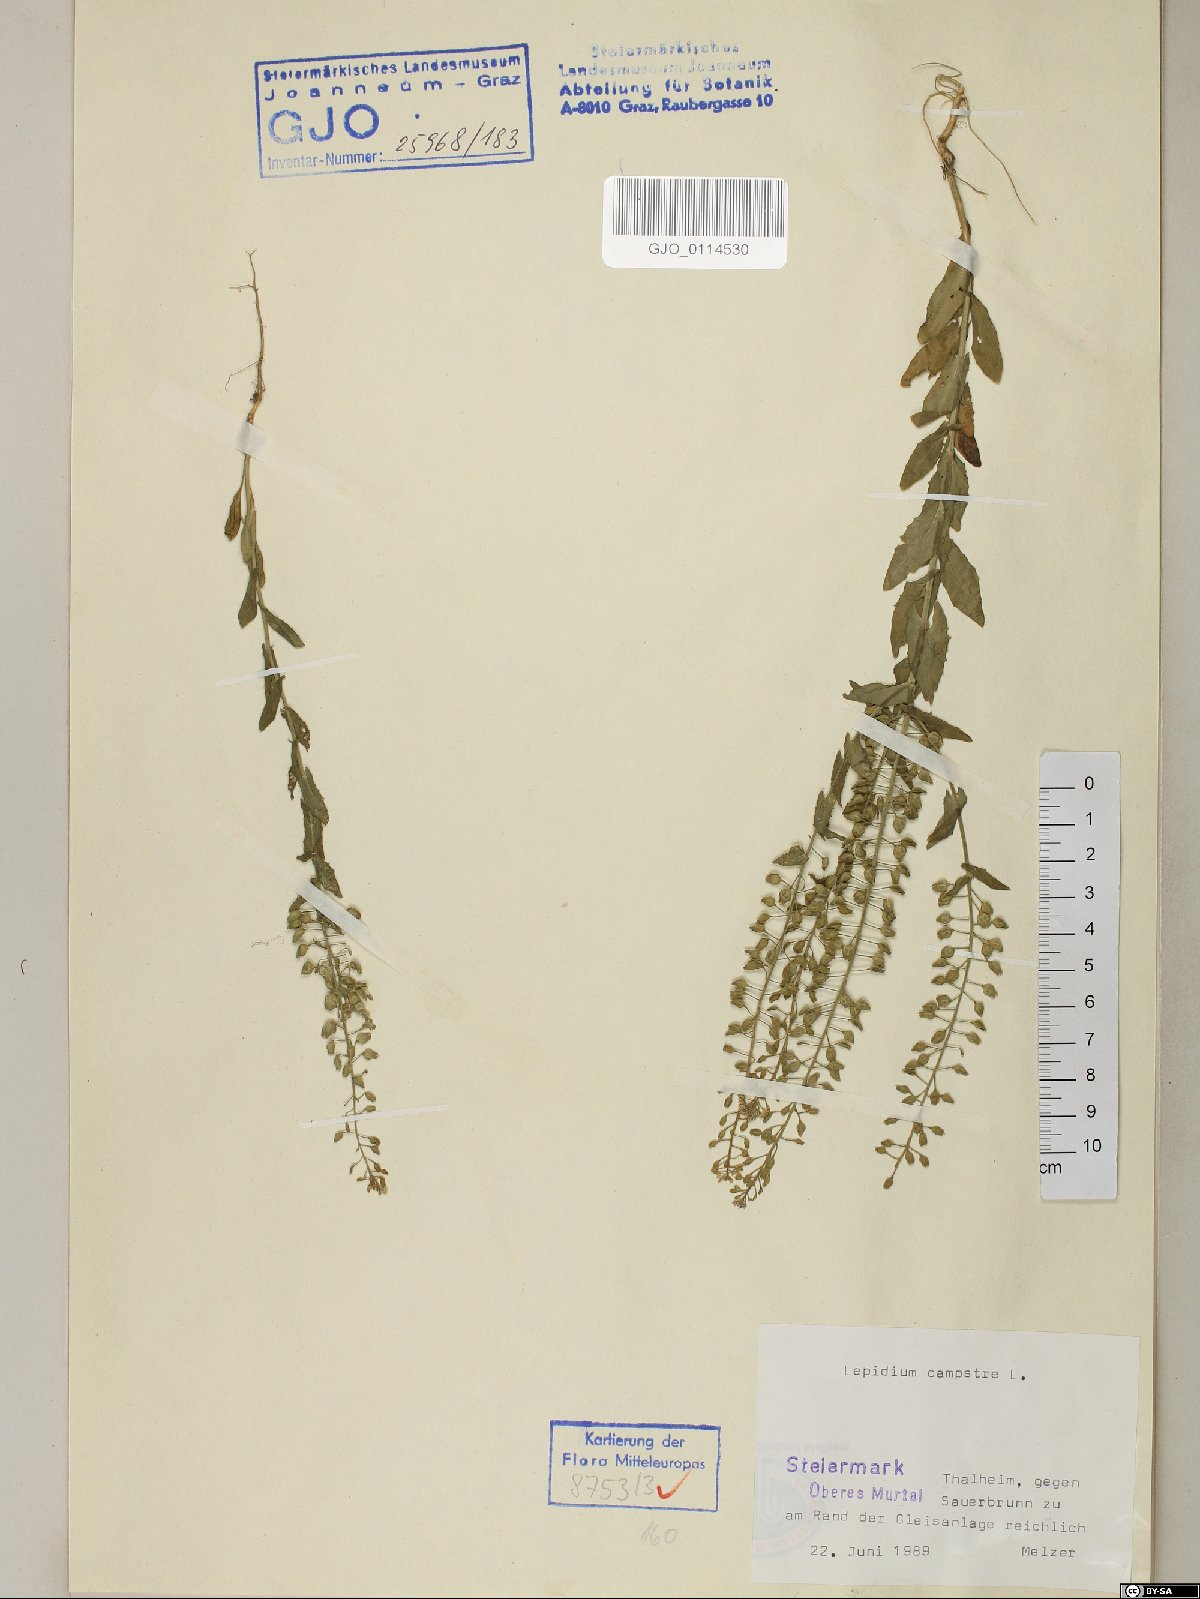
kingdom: Plantae
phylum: Tracheophyta
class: Magnoliopsida
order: Brassicales
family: Brassicaceae
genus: Lepidium
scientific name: Lepidium campestre
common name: Field pepperwort
